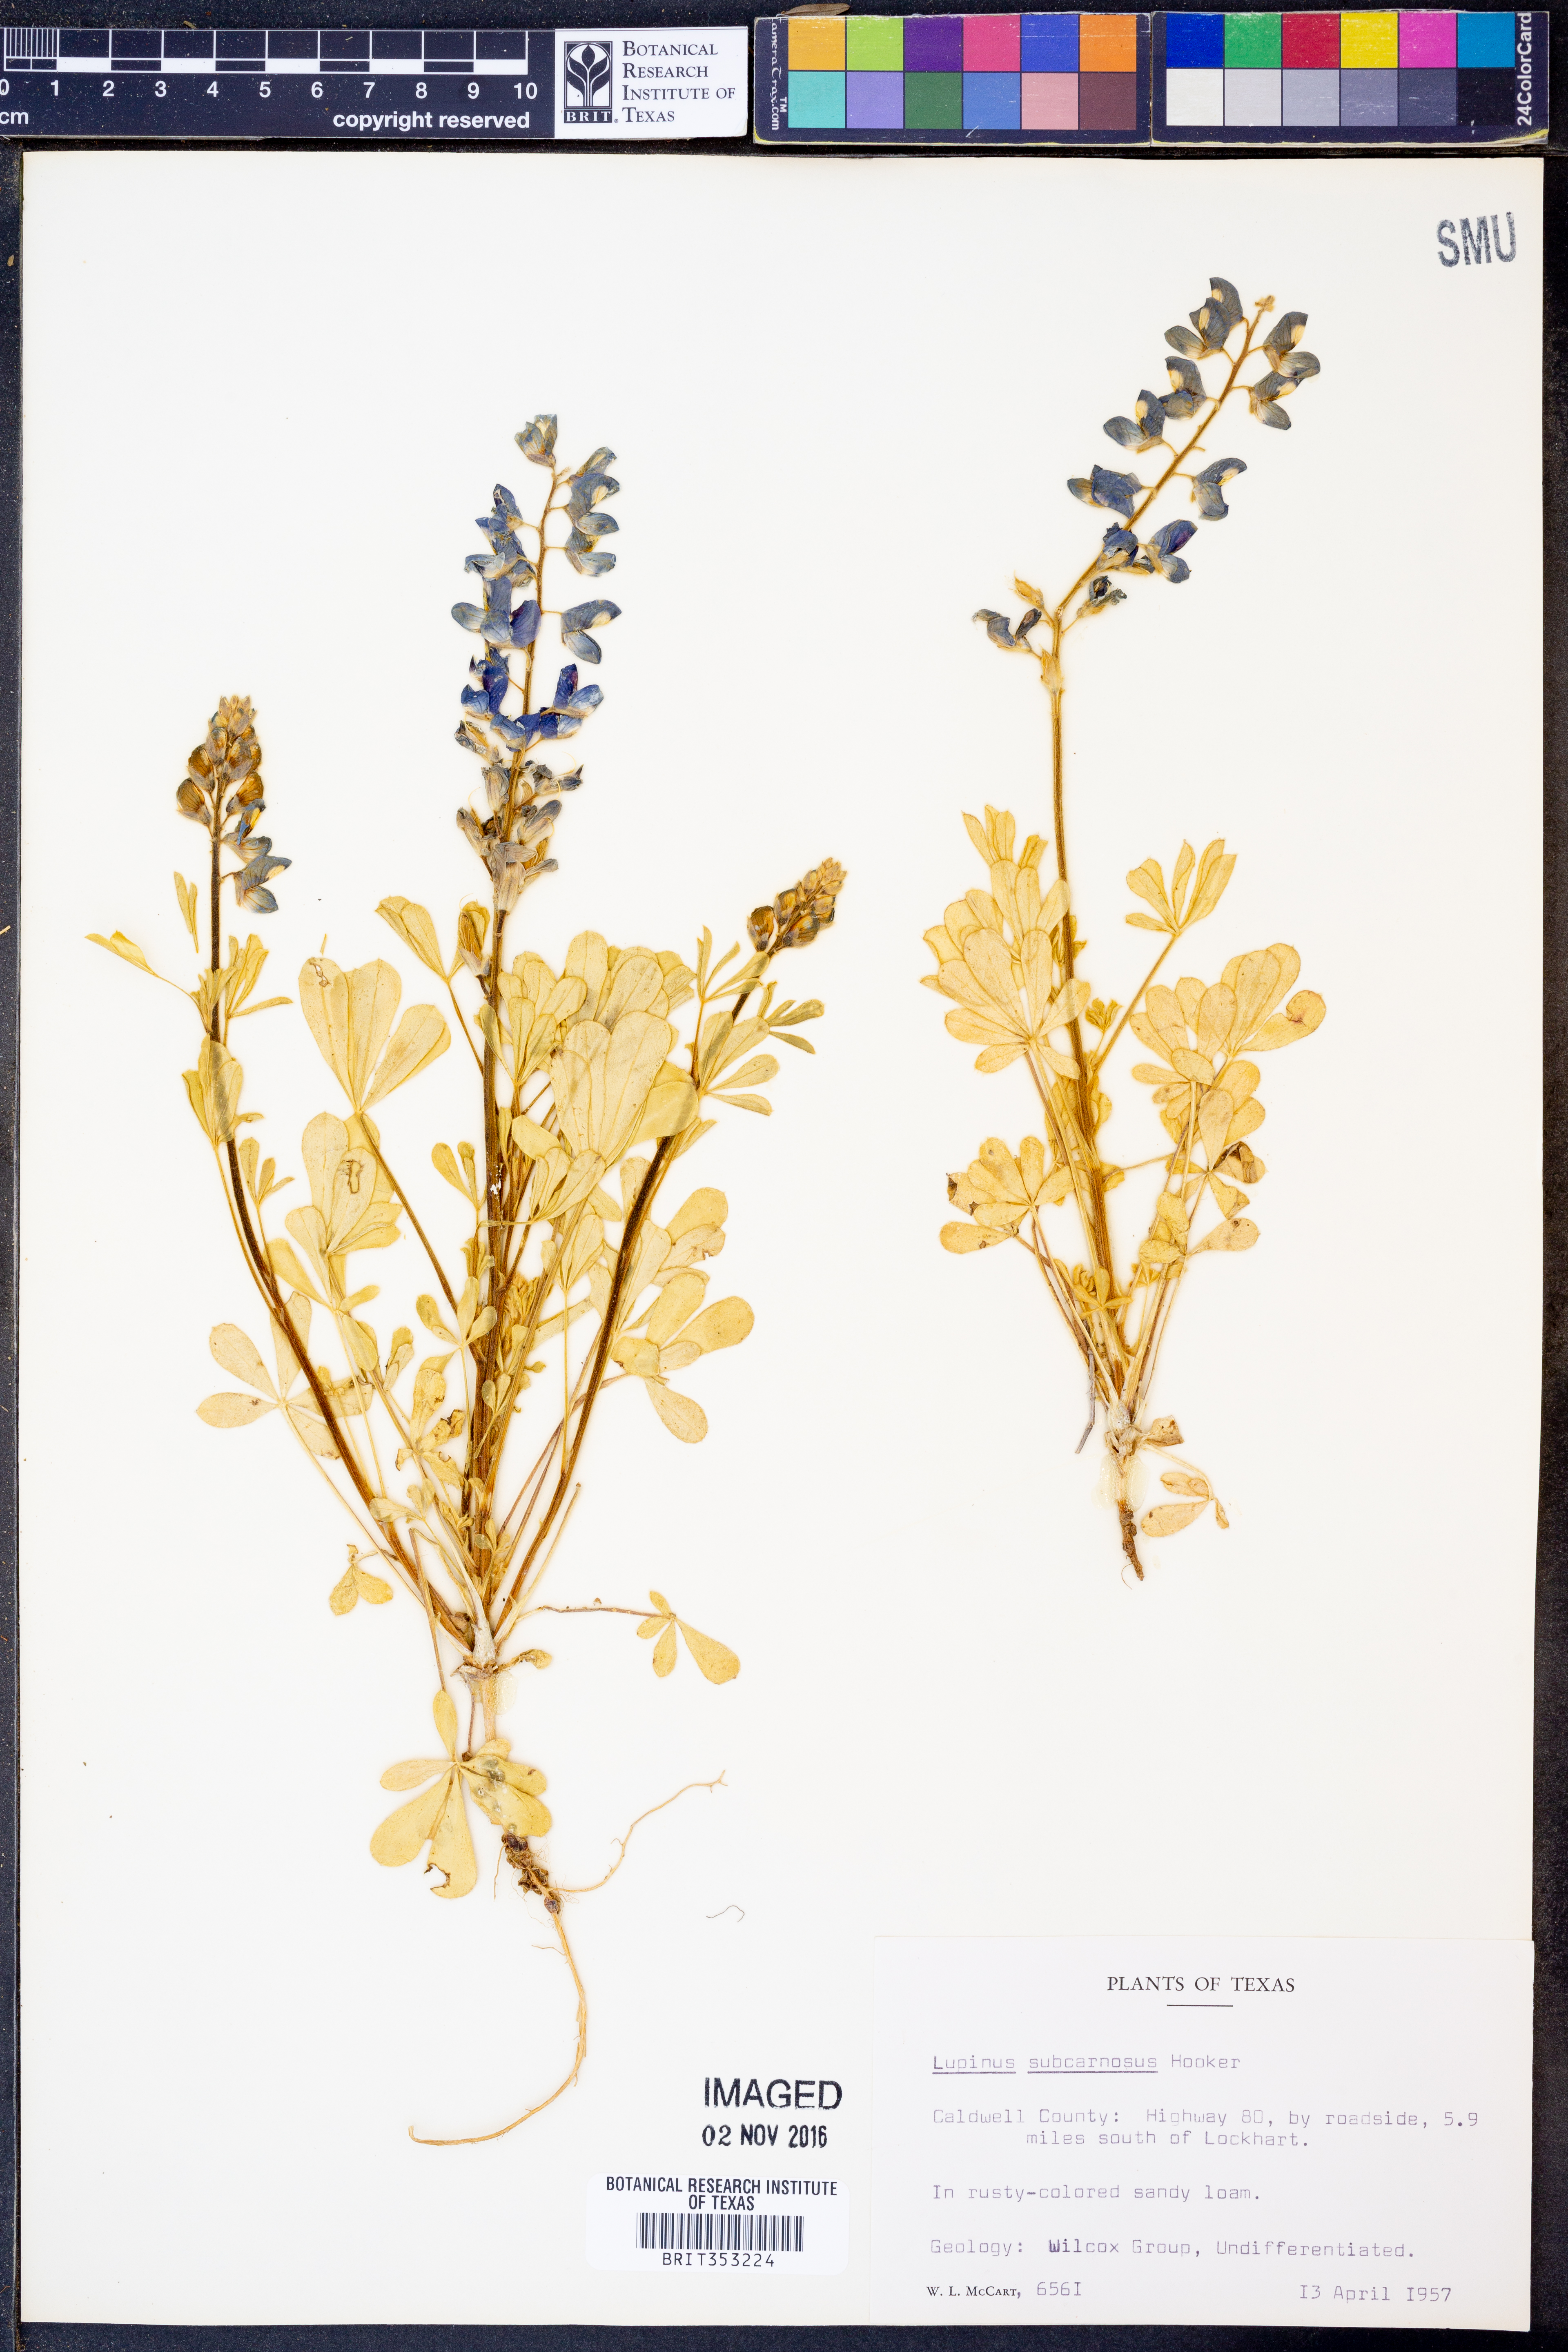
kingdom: Plantae
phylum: Tracheophyta
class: Magnoliopsida
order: Fabales
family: Fabaceae
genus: Lupinus
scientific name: Lupinus subcarnosus
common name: Texas bluebonnet
